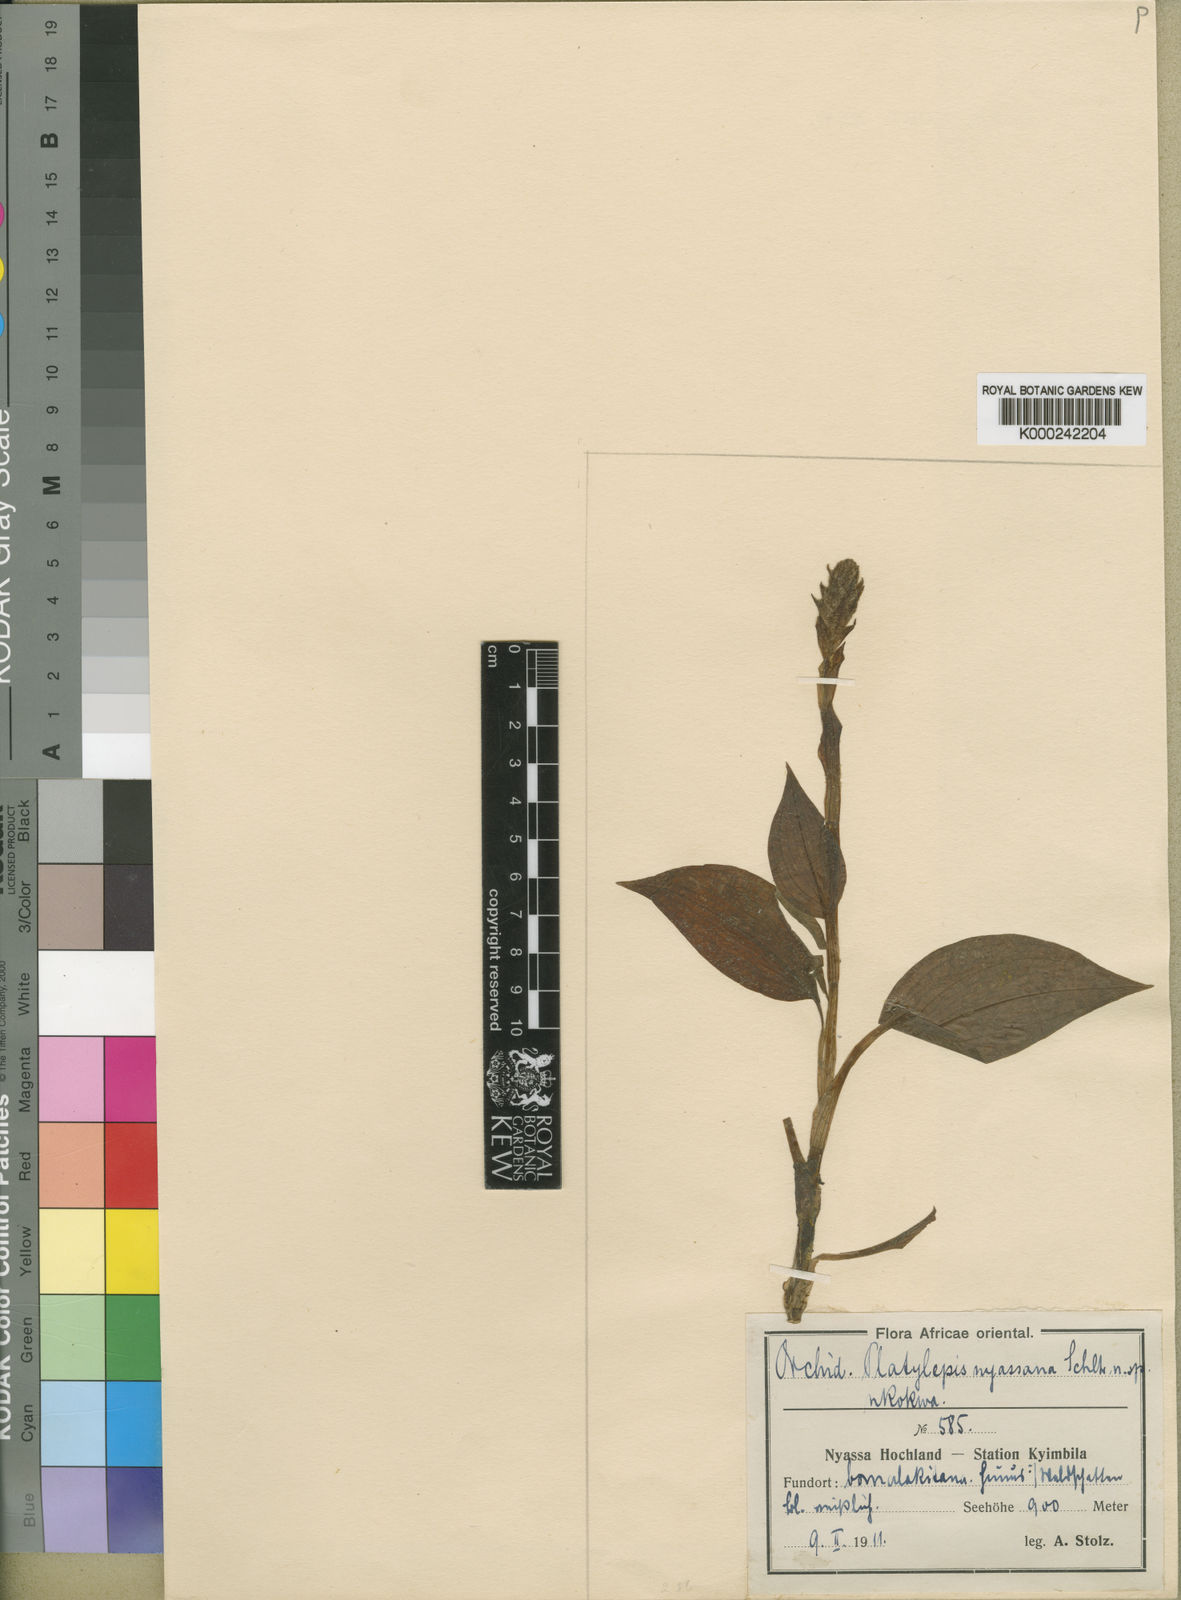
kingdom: Plantae
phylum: Tracheophyta
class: Liliopsida
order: Asparagales
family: Orchidaceae
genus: Platylepis
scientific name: Platylepis glandulosa
